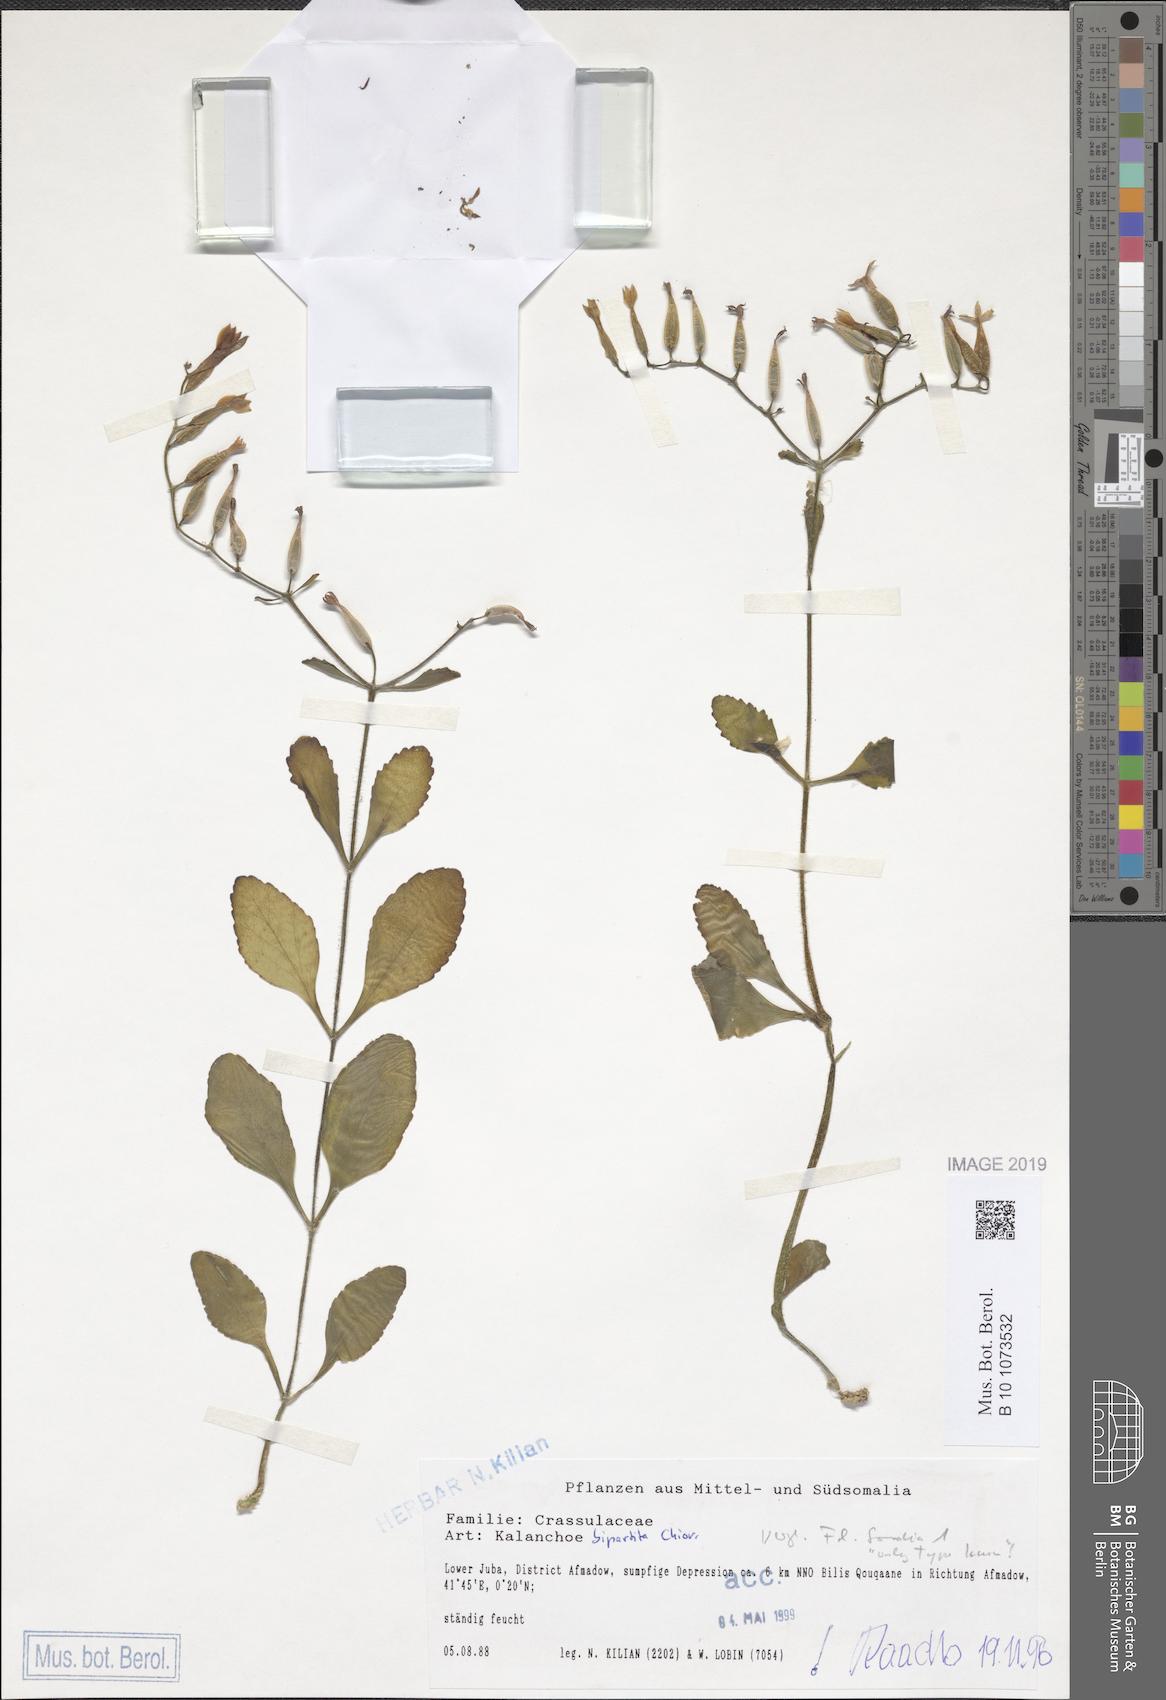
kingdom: Plantae
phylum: Tracheophyta
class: Magnoliopsida
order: Saxifragales
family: Crassulaceae
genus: Kalanchoe
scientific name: Kalanchoe bipartita
